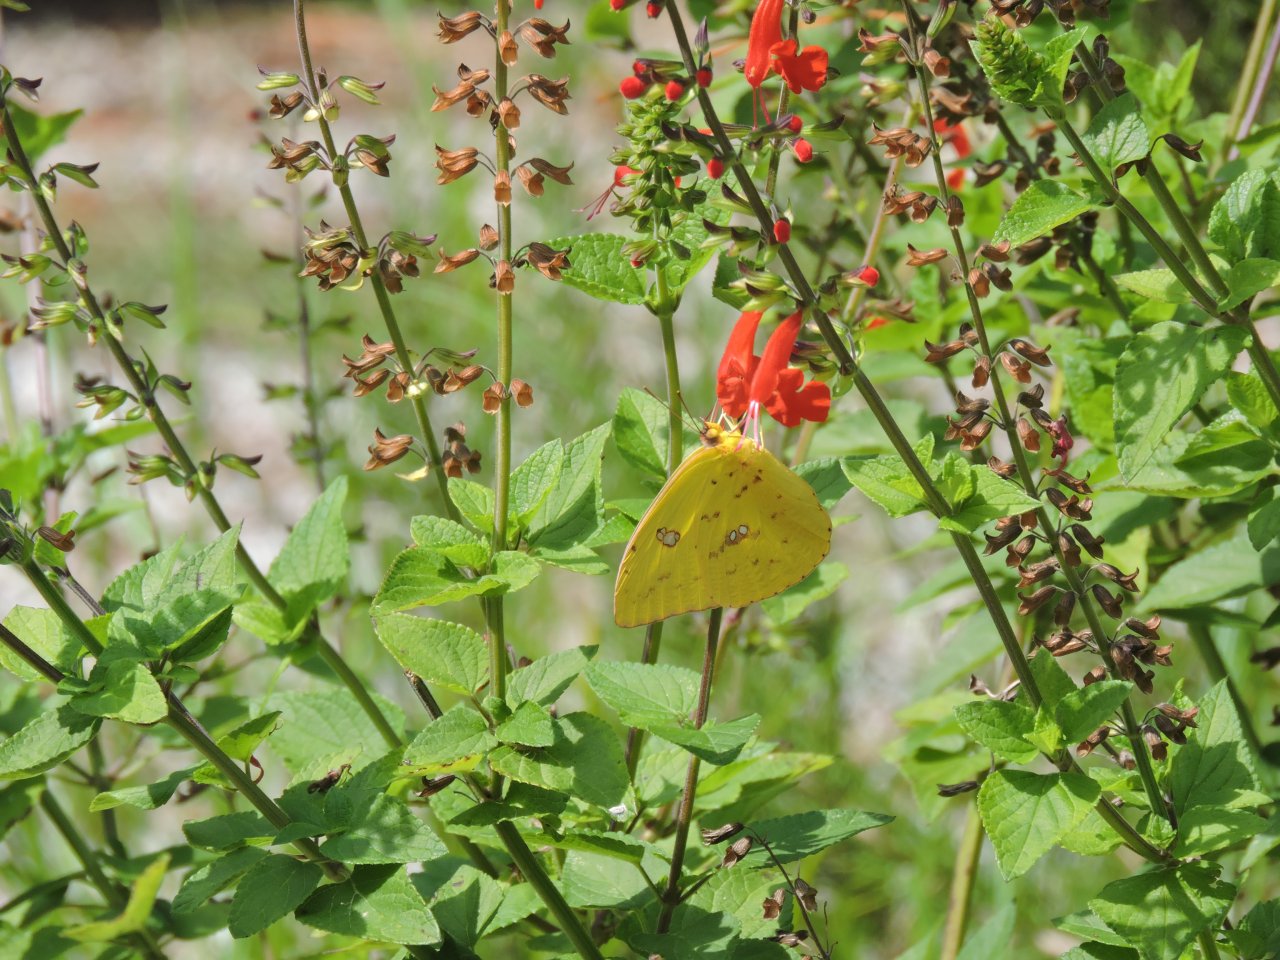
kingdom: Animalia
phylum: Arthropoda
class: Insecta
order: Lepidoptera
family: Pieridae
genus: Phoebis
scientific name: Phoebis sennae
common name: Cloudless Sulphur
